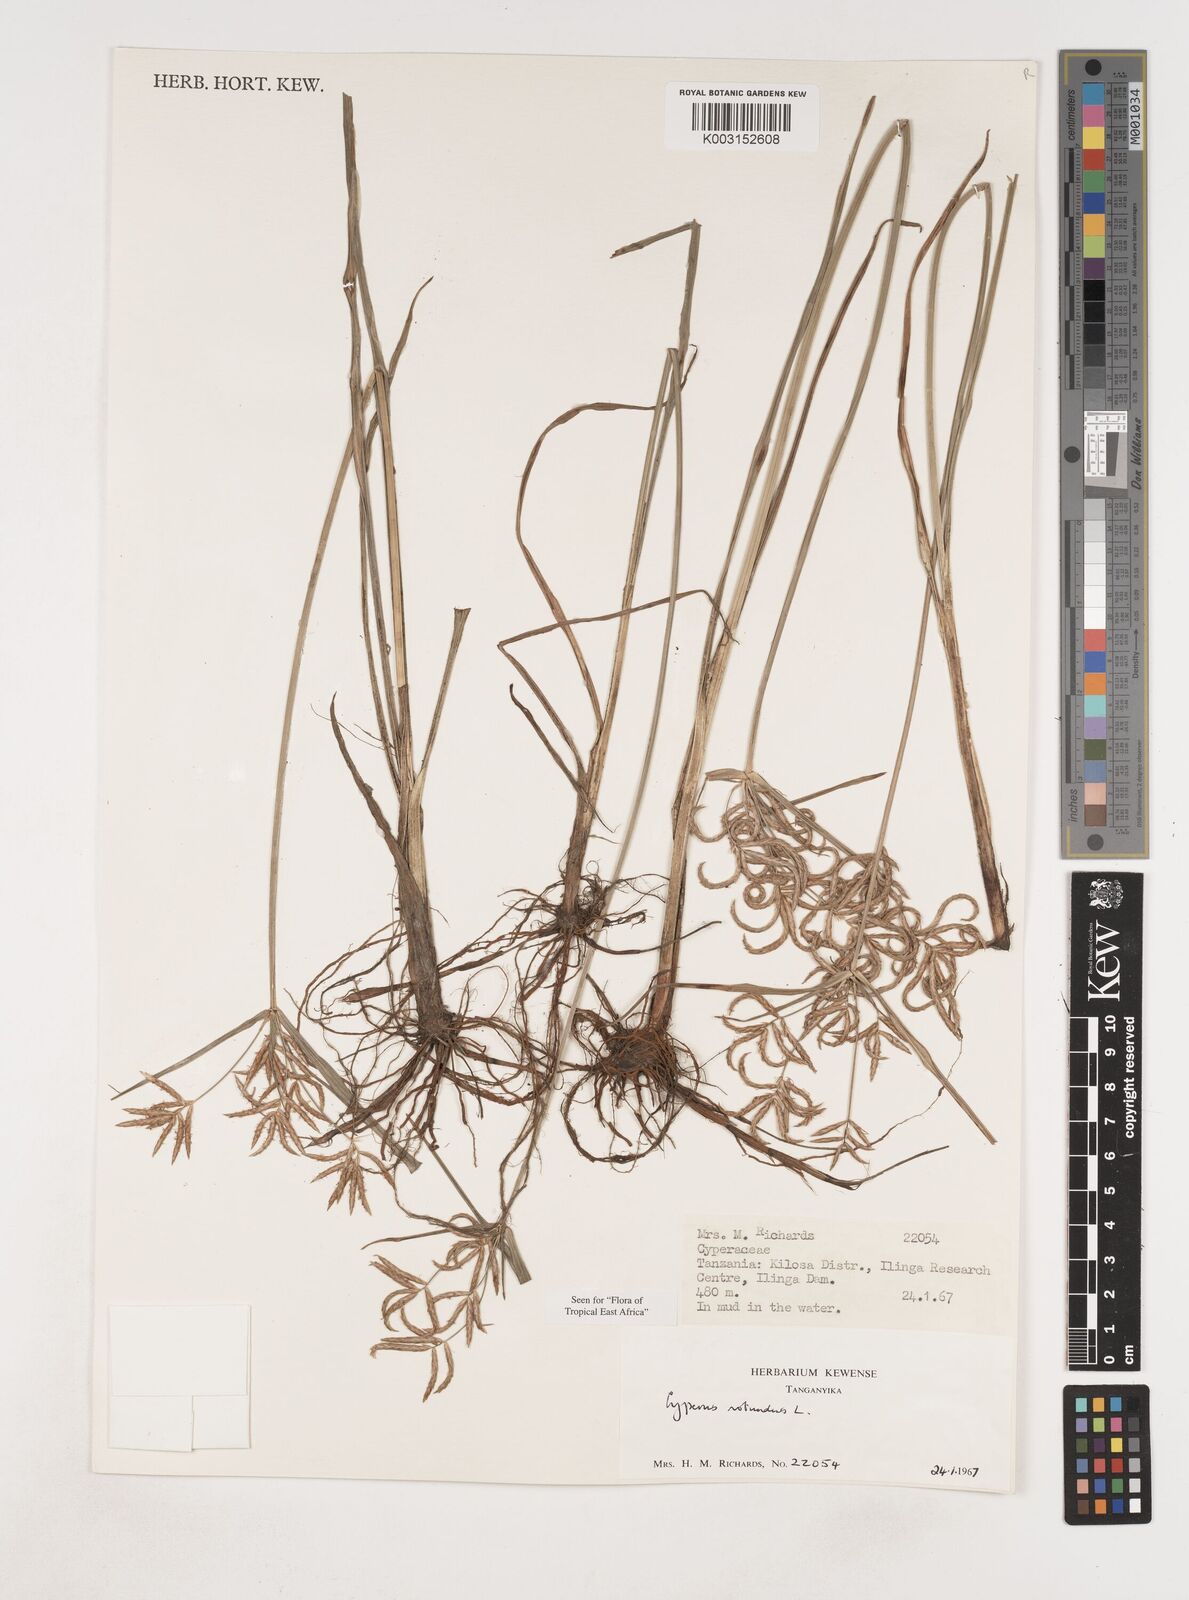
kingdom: Plantae
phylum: Tracheophyta
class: Liliopsida
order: Poales
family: Cyperaceae
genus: Cyperus
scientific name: Cyperus rotundus
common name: Nutgrass
